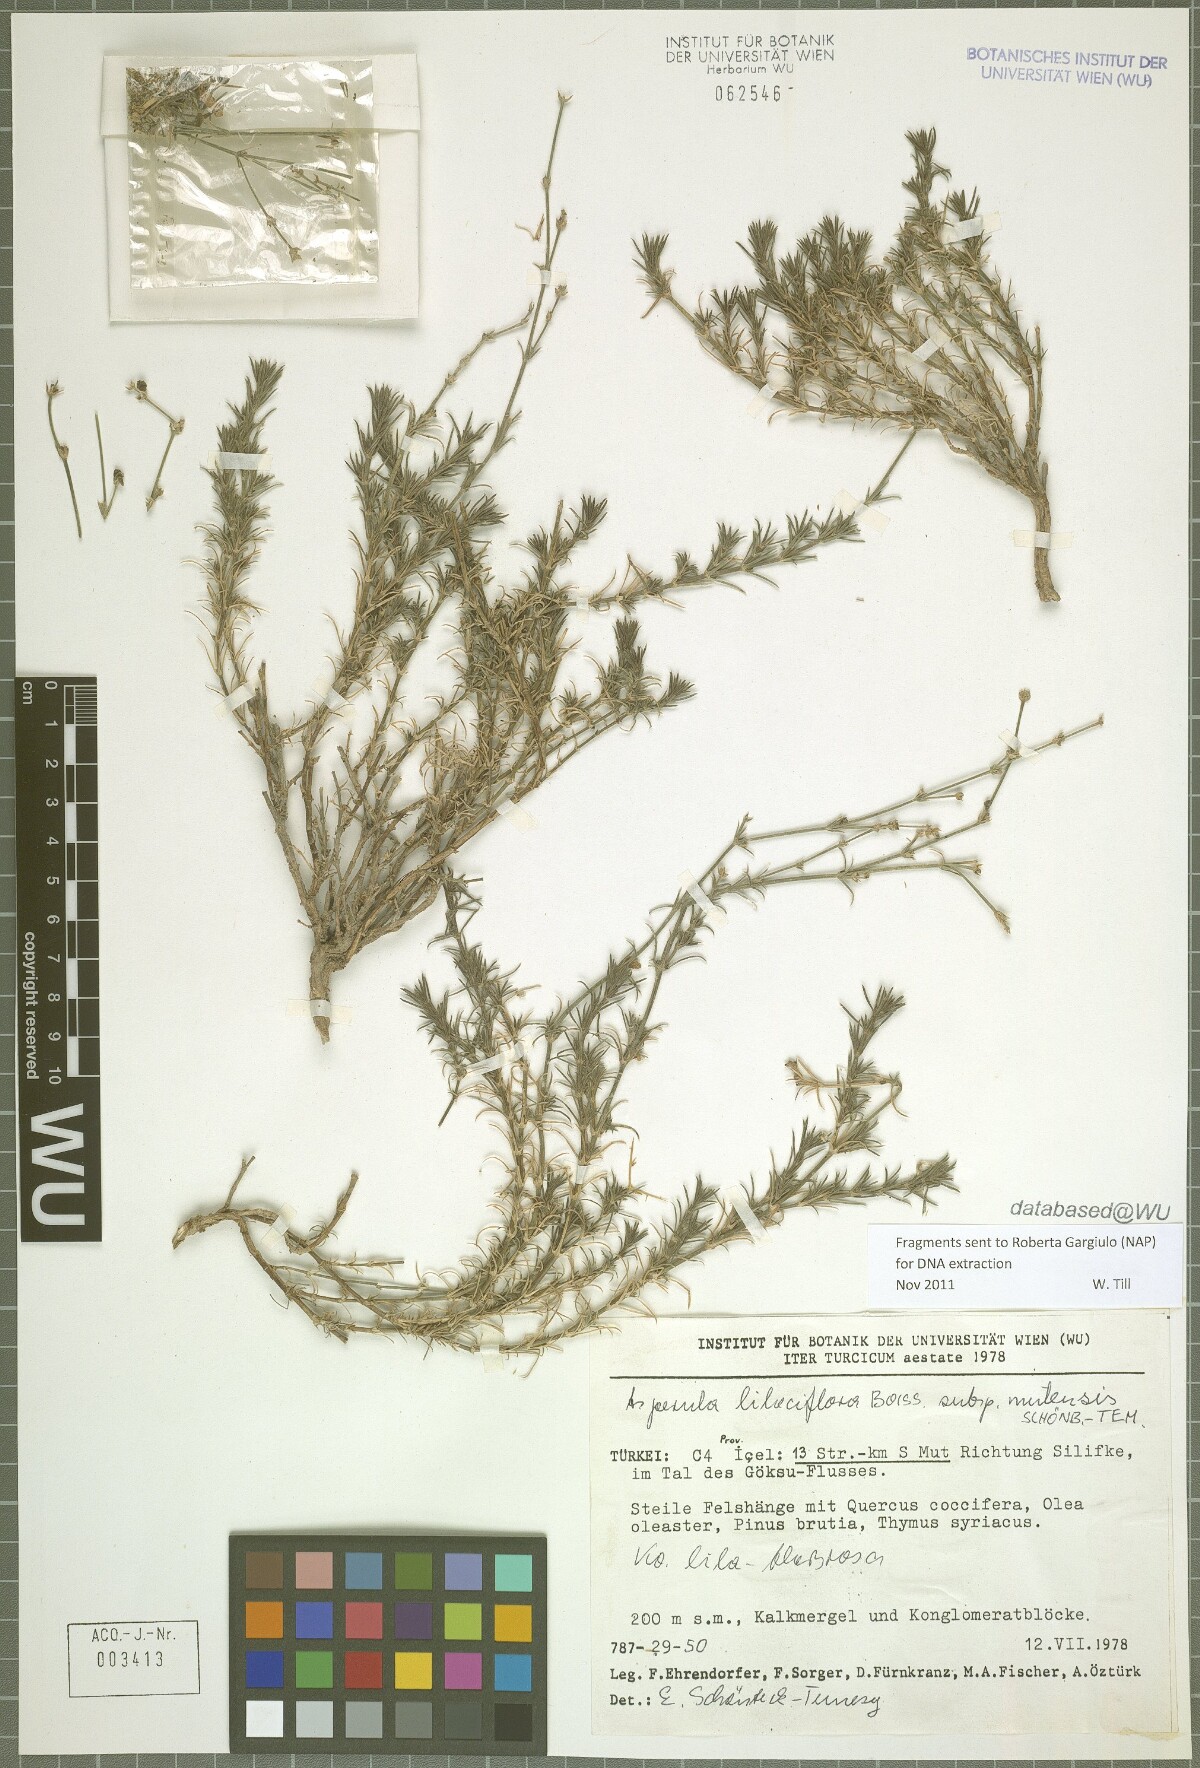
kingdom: Plantae
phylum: Tracheophyta
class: Magnoliopsida
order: Gentianales
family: Rubiaceae
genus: Cynanchica
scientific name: Cynanchica lilaciflora
